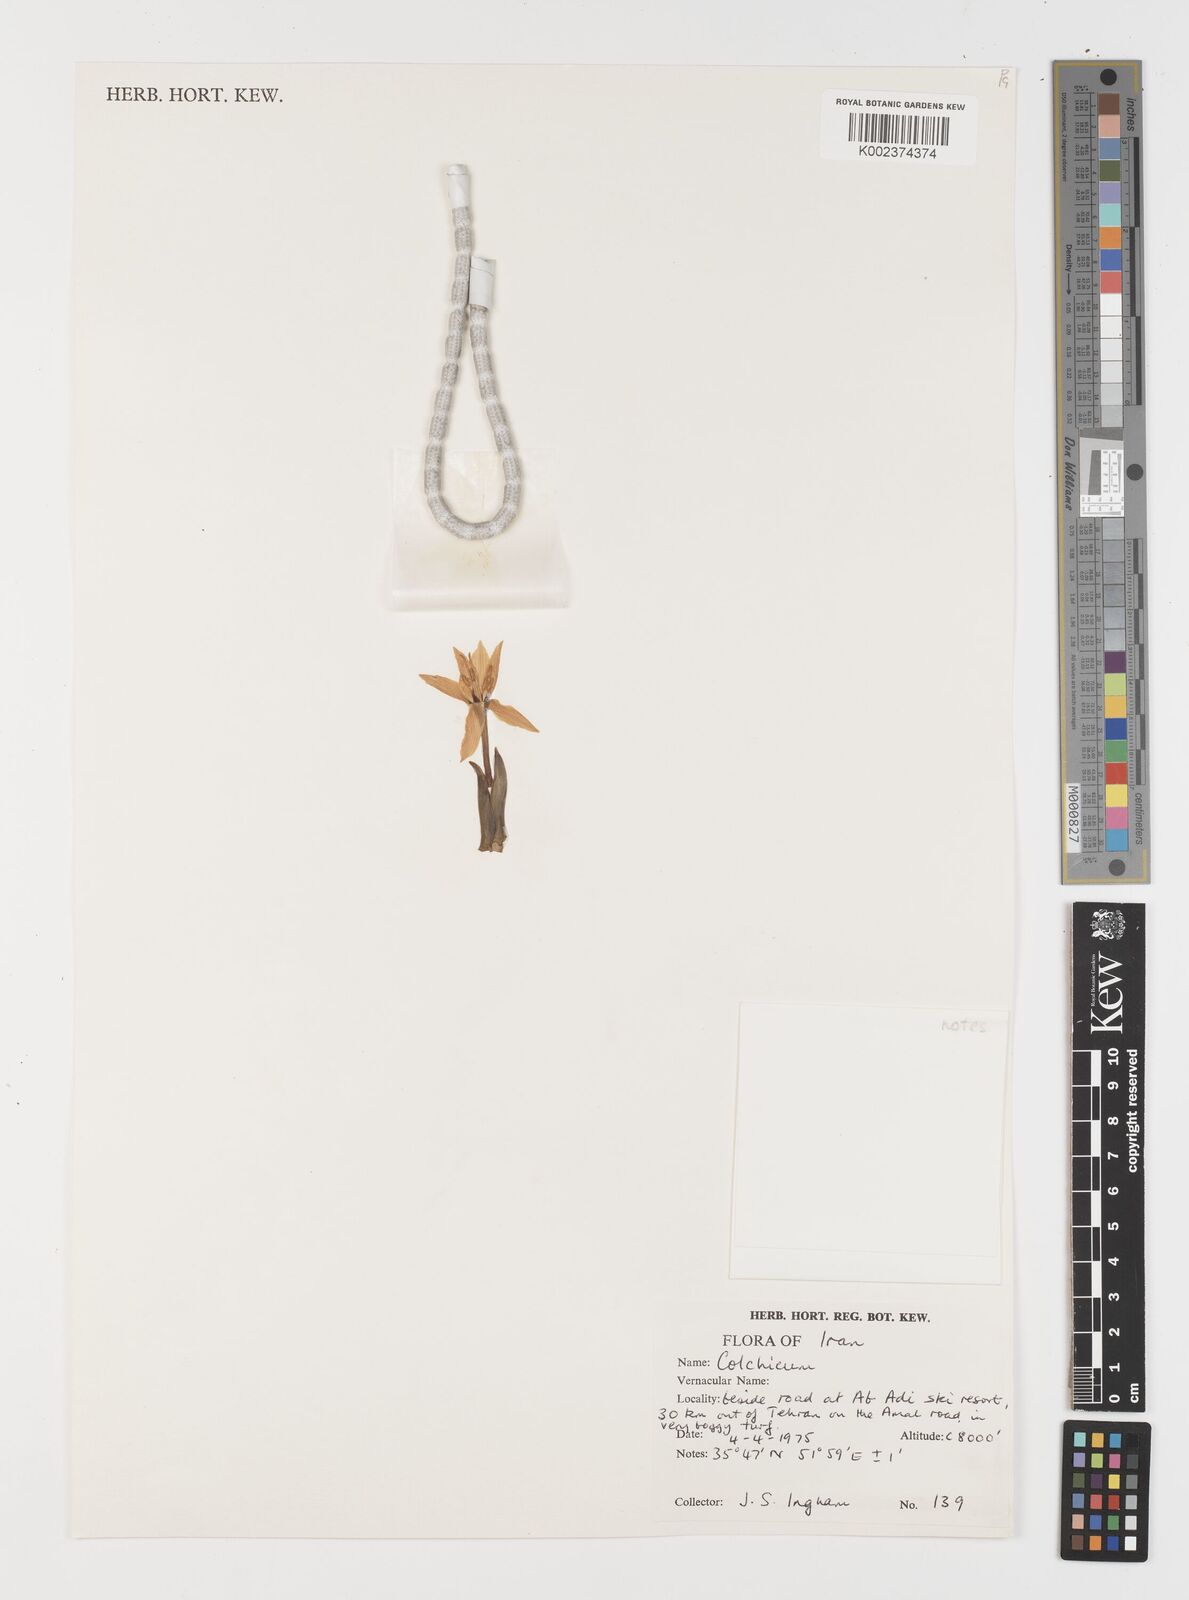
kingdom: Plantae
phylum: Tracheophyta
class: Liliopsida
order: Liliales
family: Colchicaceae
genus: Colchicum
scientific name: Colchicum
